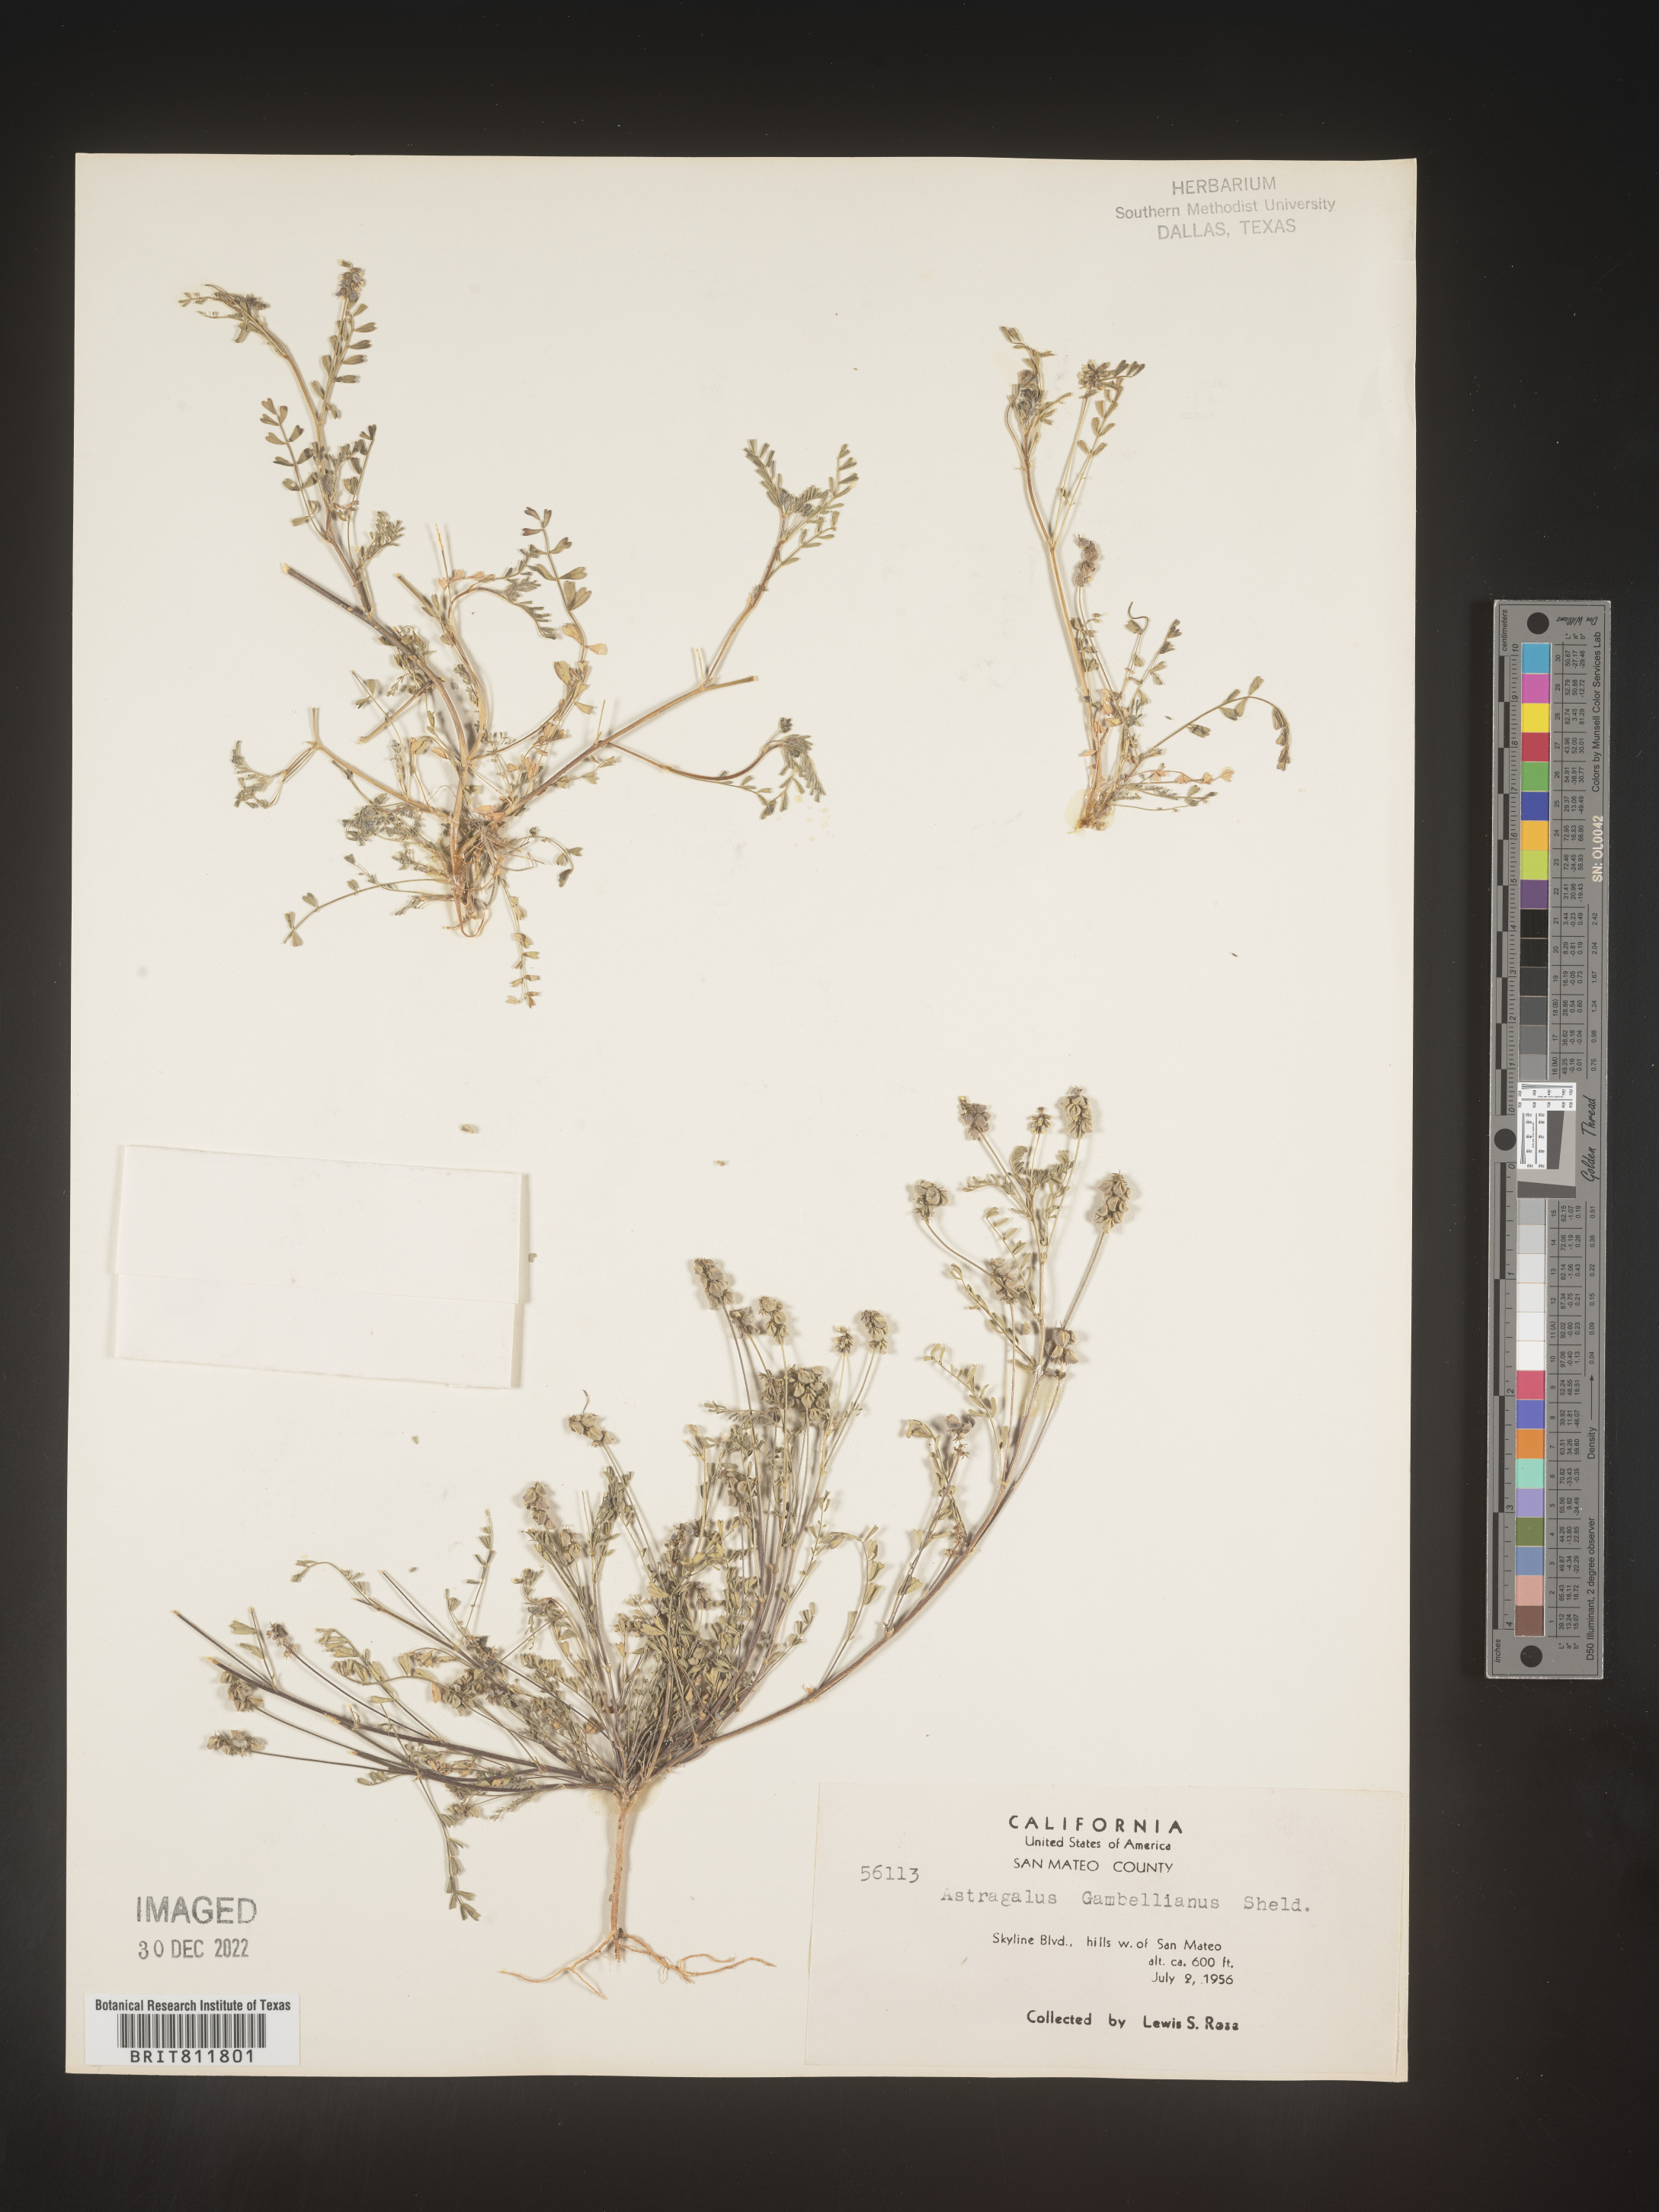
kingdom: Plantae
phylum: Tracheophyta
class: Magnoliopsida
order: Fabales
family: Fabaceae
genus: Astragalus
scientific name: Astragalus
